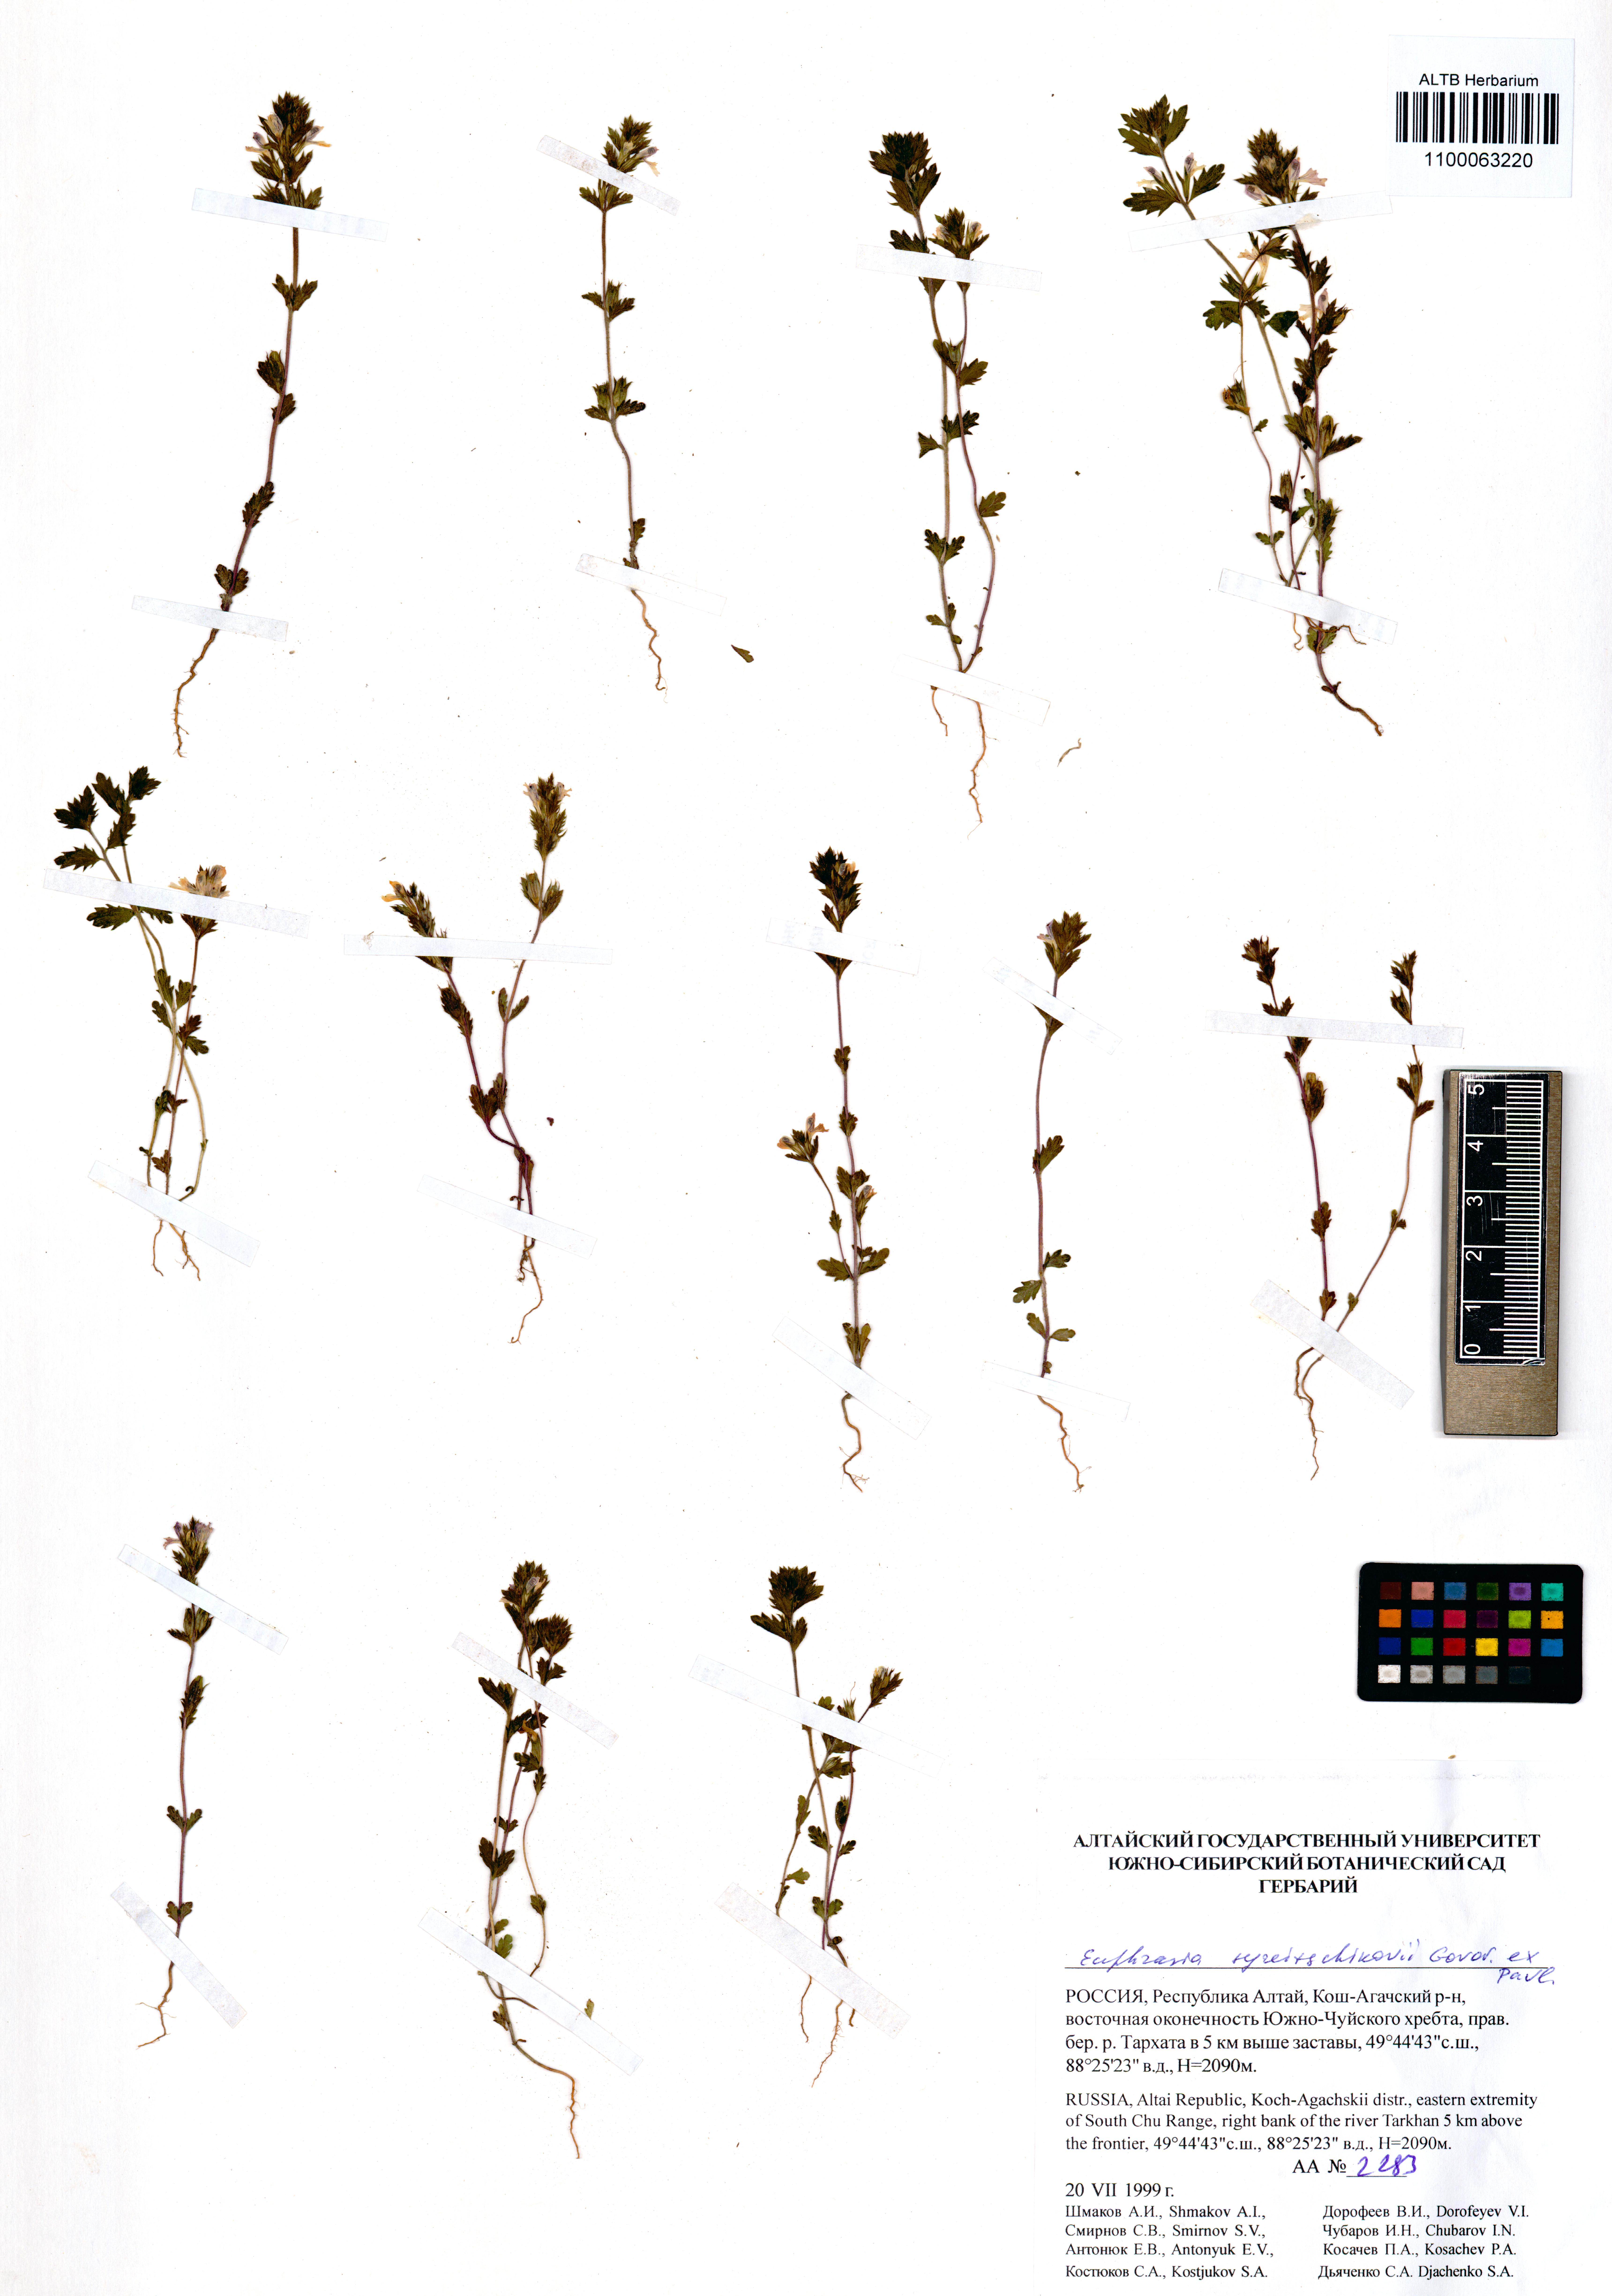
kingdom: Plantae
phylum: Tracheophyta
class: Magnoliopsida
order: Lamiales
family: Orobanchaceae
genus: Euphrasia
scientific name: Euphrasia syreitschikovii
